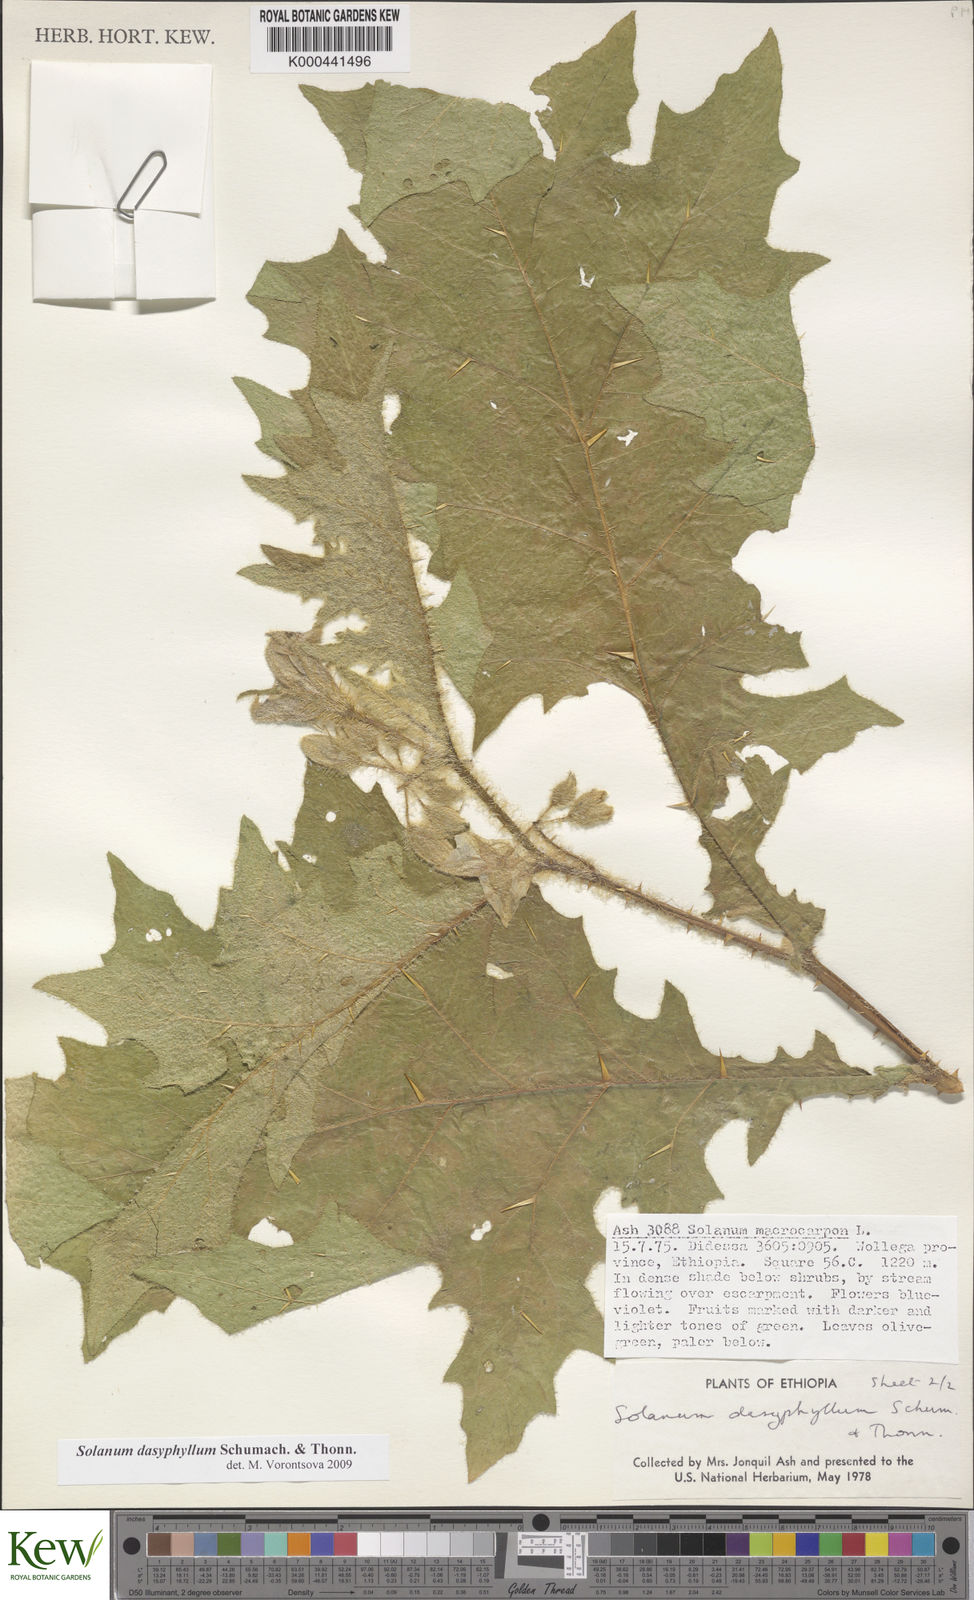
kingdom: Plantae
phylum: Tracheophyta
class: Magnoliopsida
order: Solanales
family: Solanaceae
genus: Solanum
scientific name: Solanum dasyphyllum
